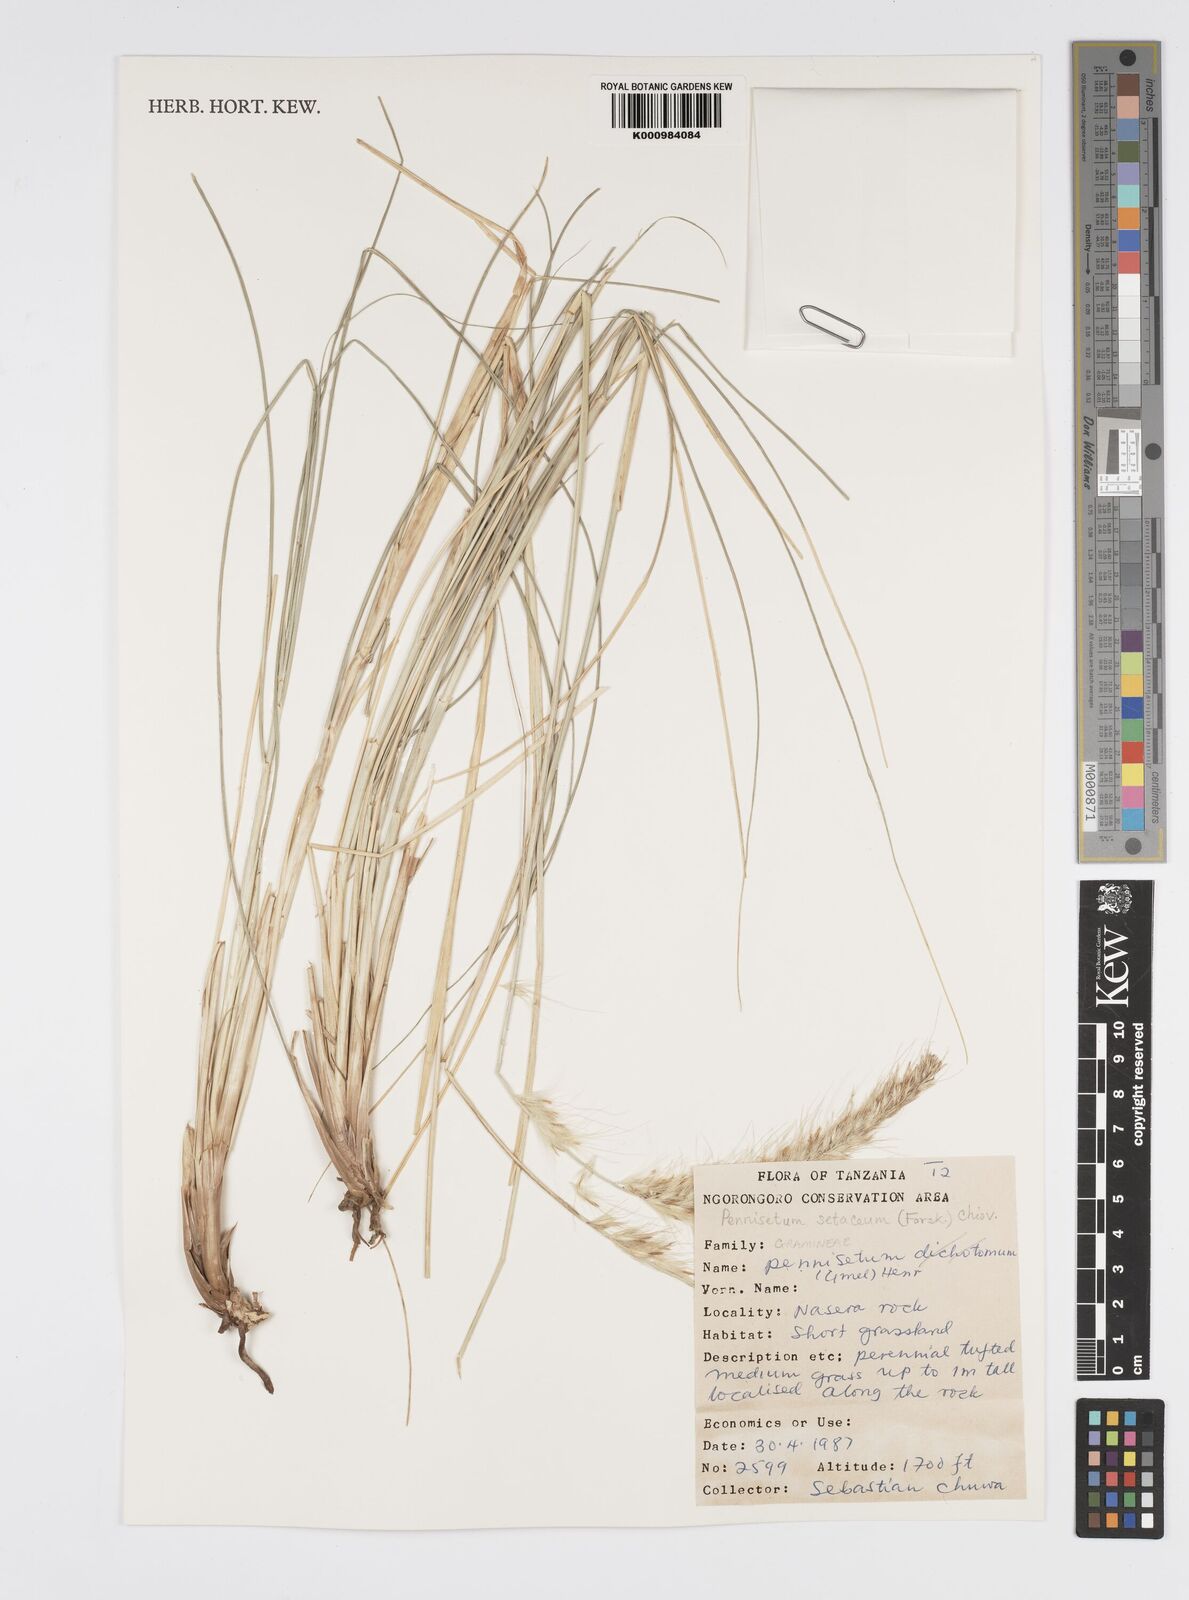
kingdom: Plantae
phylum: Tracheophyta
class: Liliopsida
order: Poales
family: Poaceae
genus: Cenchrus
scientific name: Cenchrus setaceus
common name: Crimson fountaingrass
